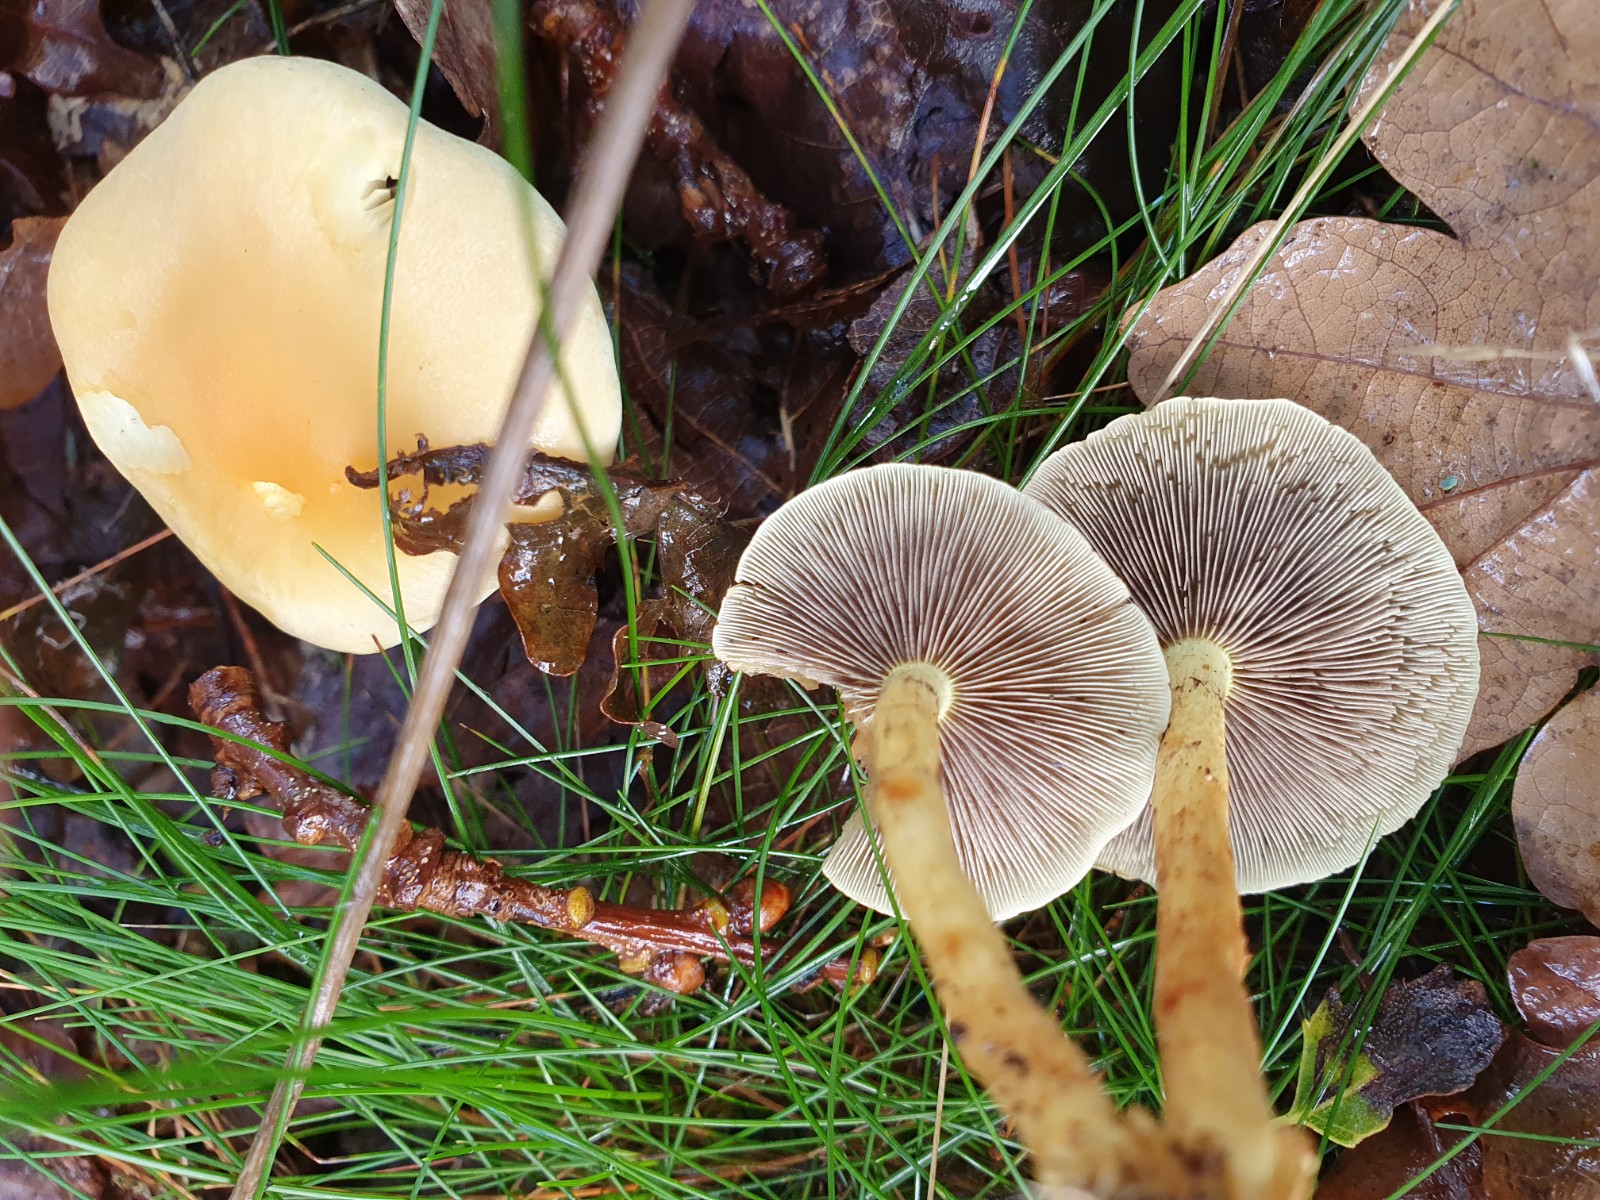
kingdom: Fungi
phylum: Basidiomycota
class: Agaricomycetes
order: Agaricales
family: Strophariaceae
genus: Hypholoma
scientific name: Hypholoma fasciculare
